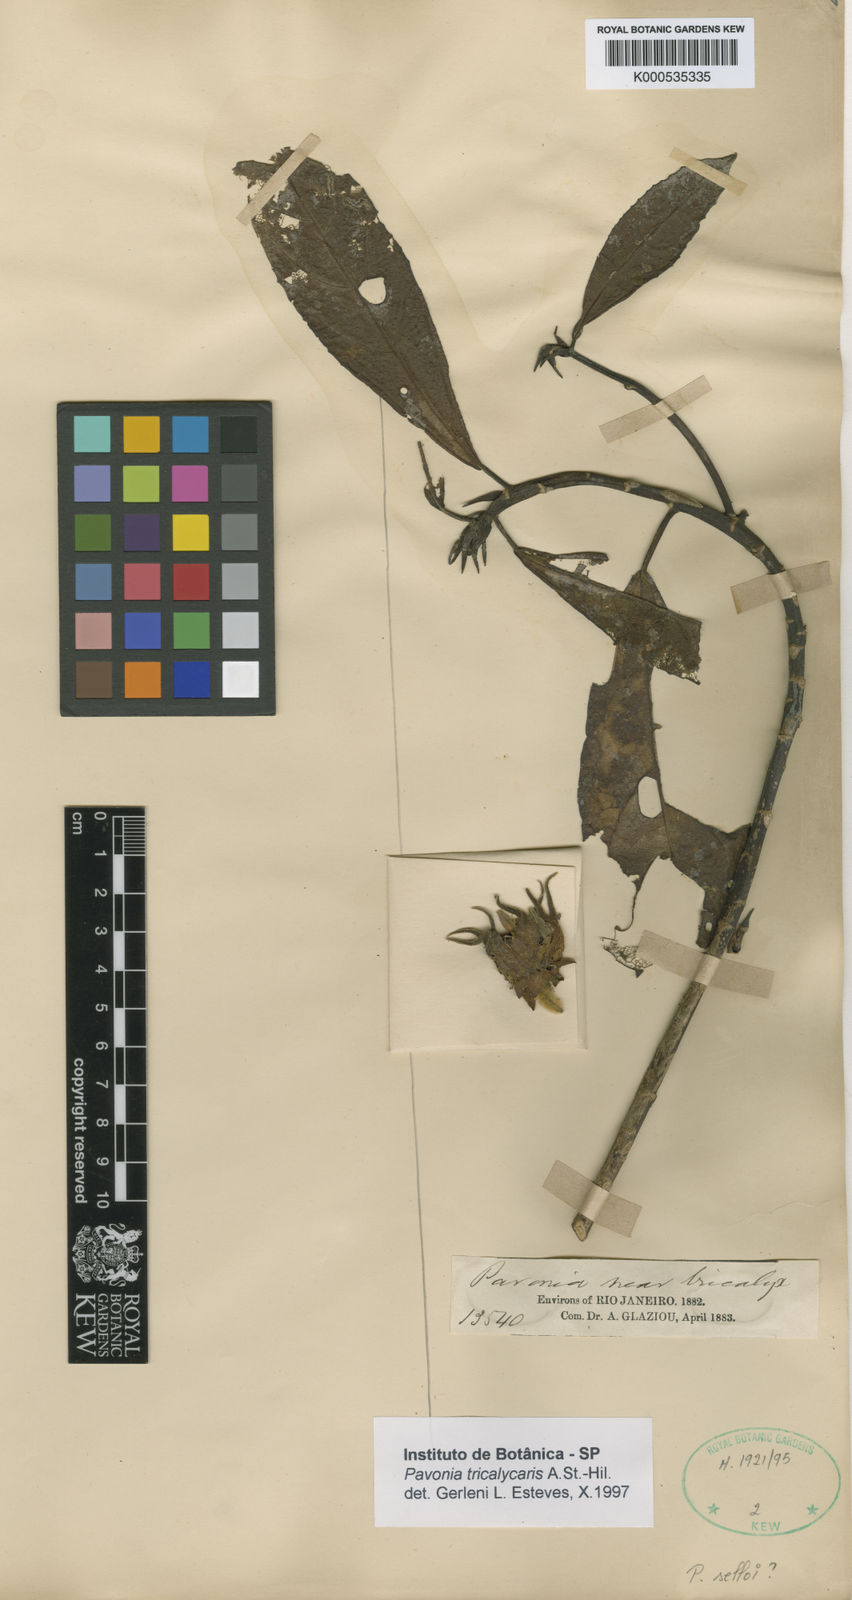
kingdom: Plantae
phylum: Tracheophyta
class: Magnoliopsida
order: Malvales
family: Malvaceae
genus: Pavonia
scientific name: Pavonia tricalycaris
